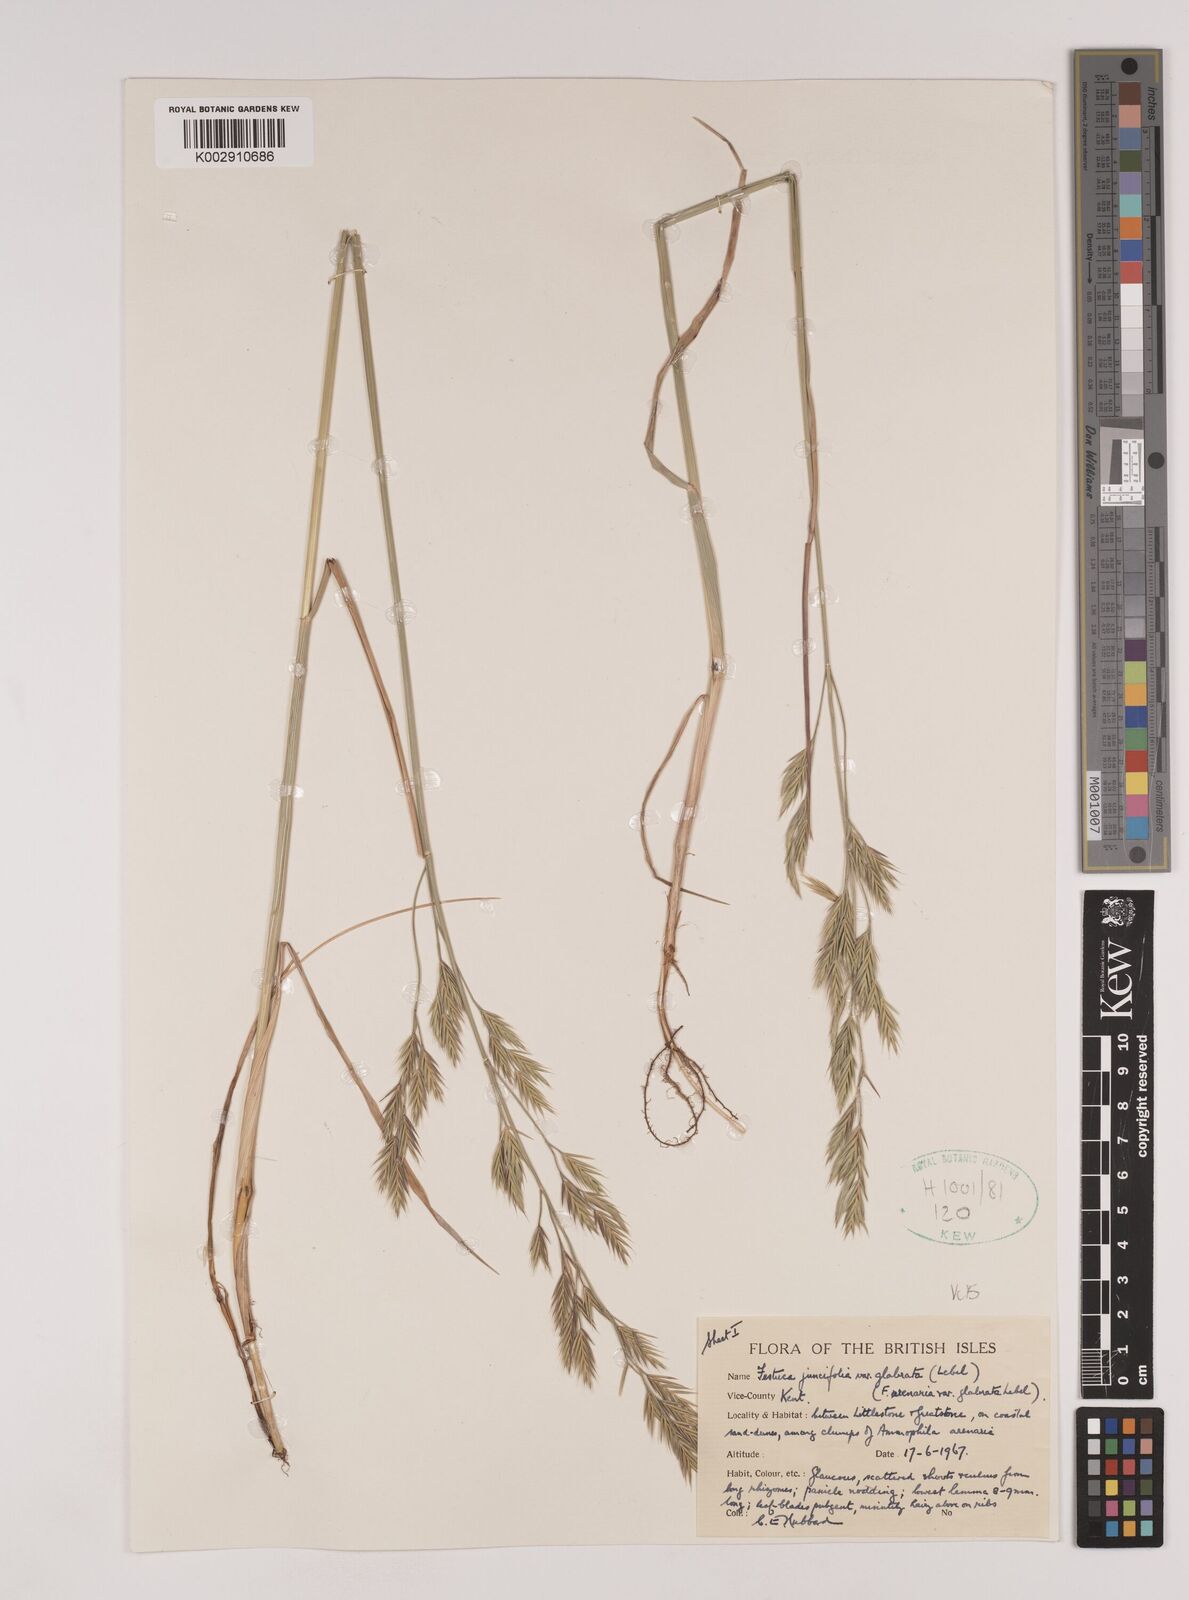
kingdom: Plantae
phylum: Tracheophyta
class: Liliopsida
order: Poales
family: Poaceae
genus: Festuca
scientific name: Festuca rubra
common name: Red fescue
